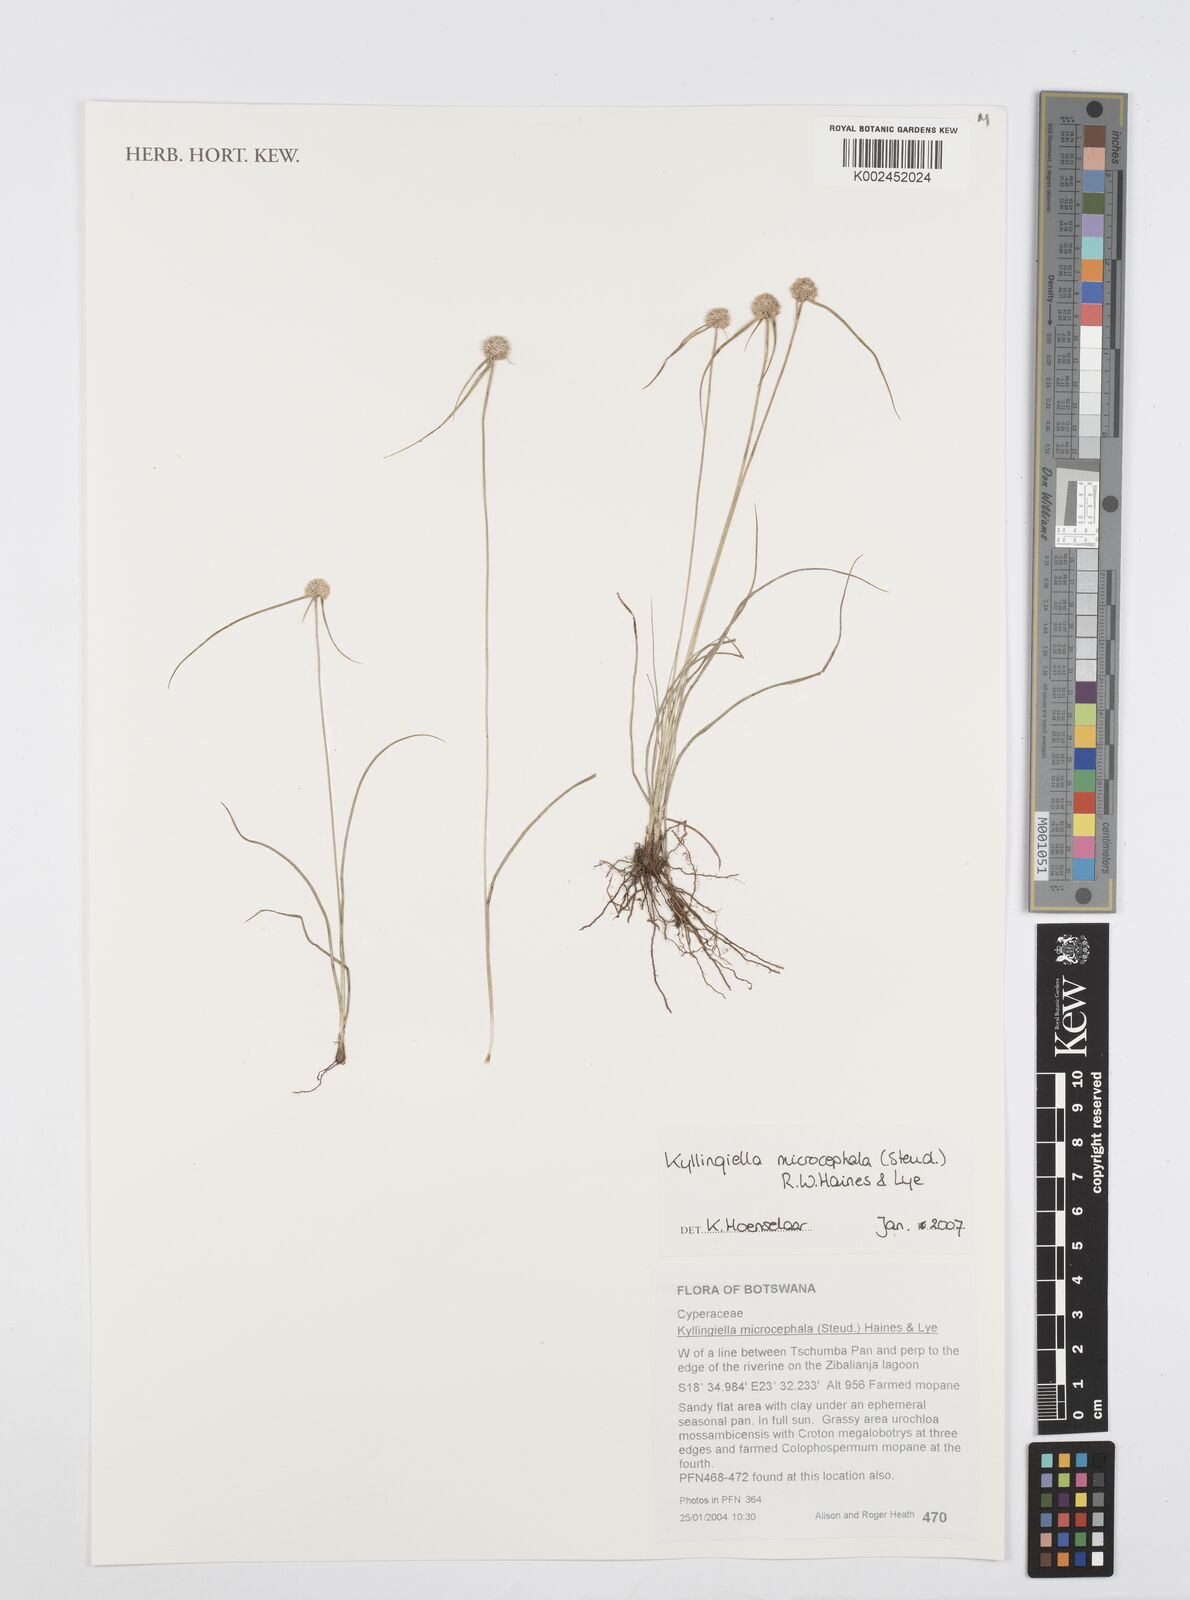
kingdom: Plantae
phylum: Tracheophyta
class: Liliopsida
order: Poales
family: Cyperaceae
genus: Cyperus
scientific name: Cyperus microcephalus
